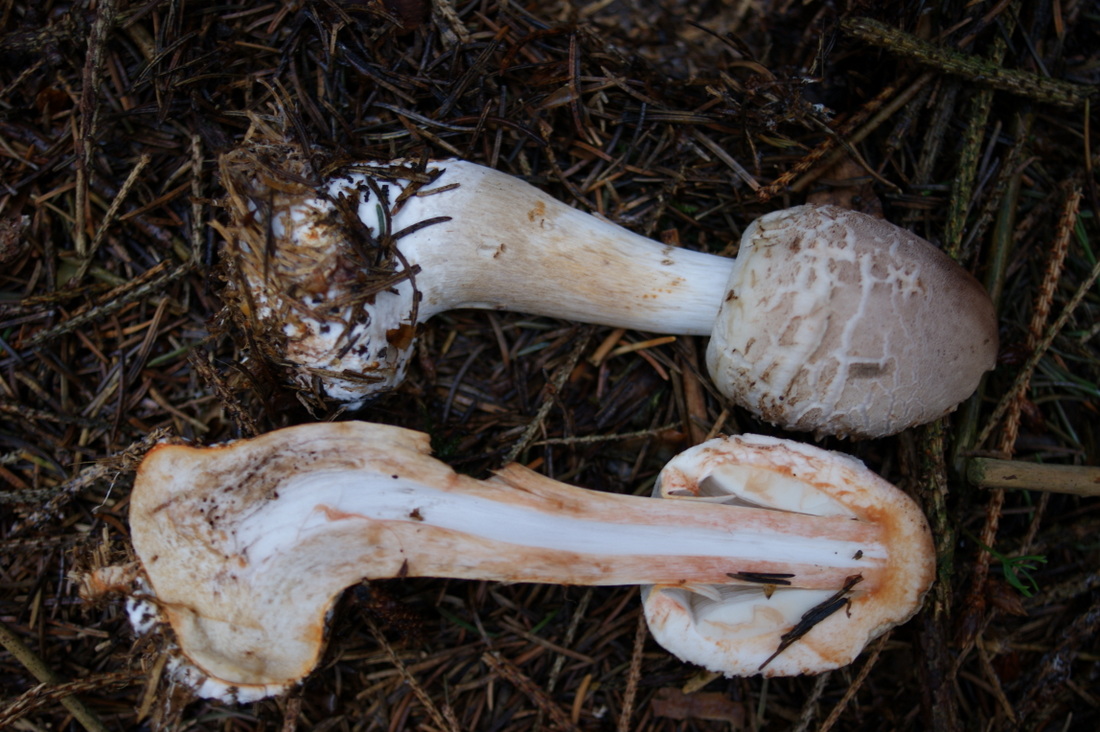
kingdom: Fungi
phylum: Basidiomycota
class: Agaricomycetes
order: Agaricales
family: Agaricaceae
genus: Chlorophyllum
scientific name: Chlorophyllum olivieri
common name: almindelig rabarberhat
